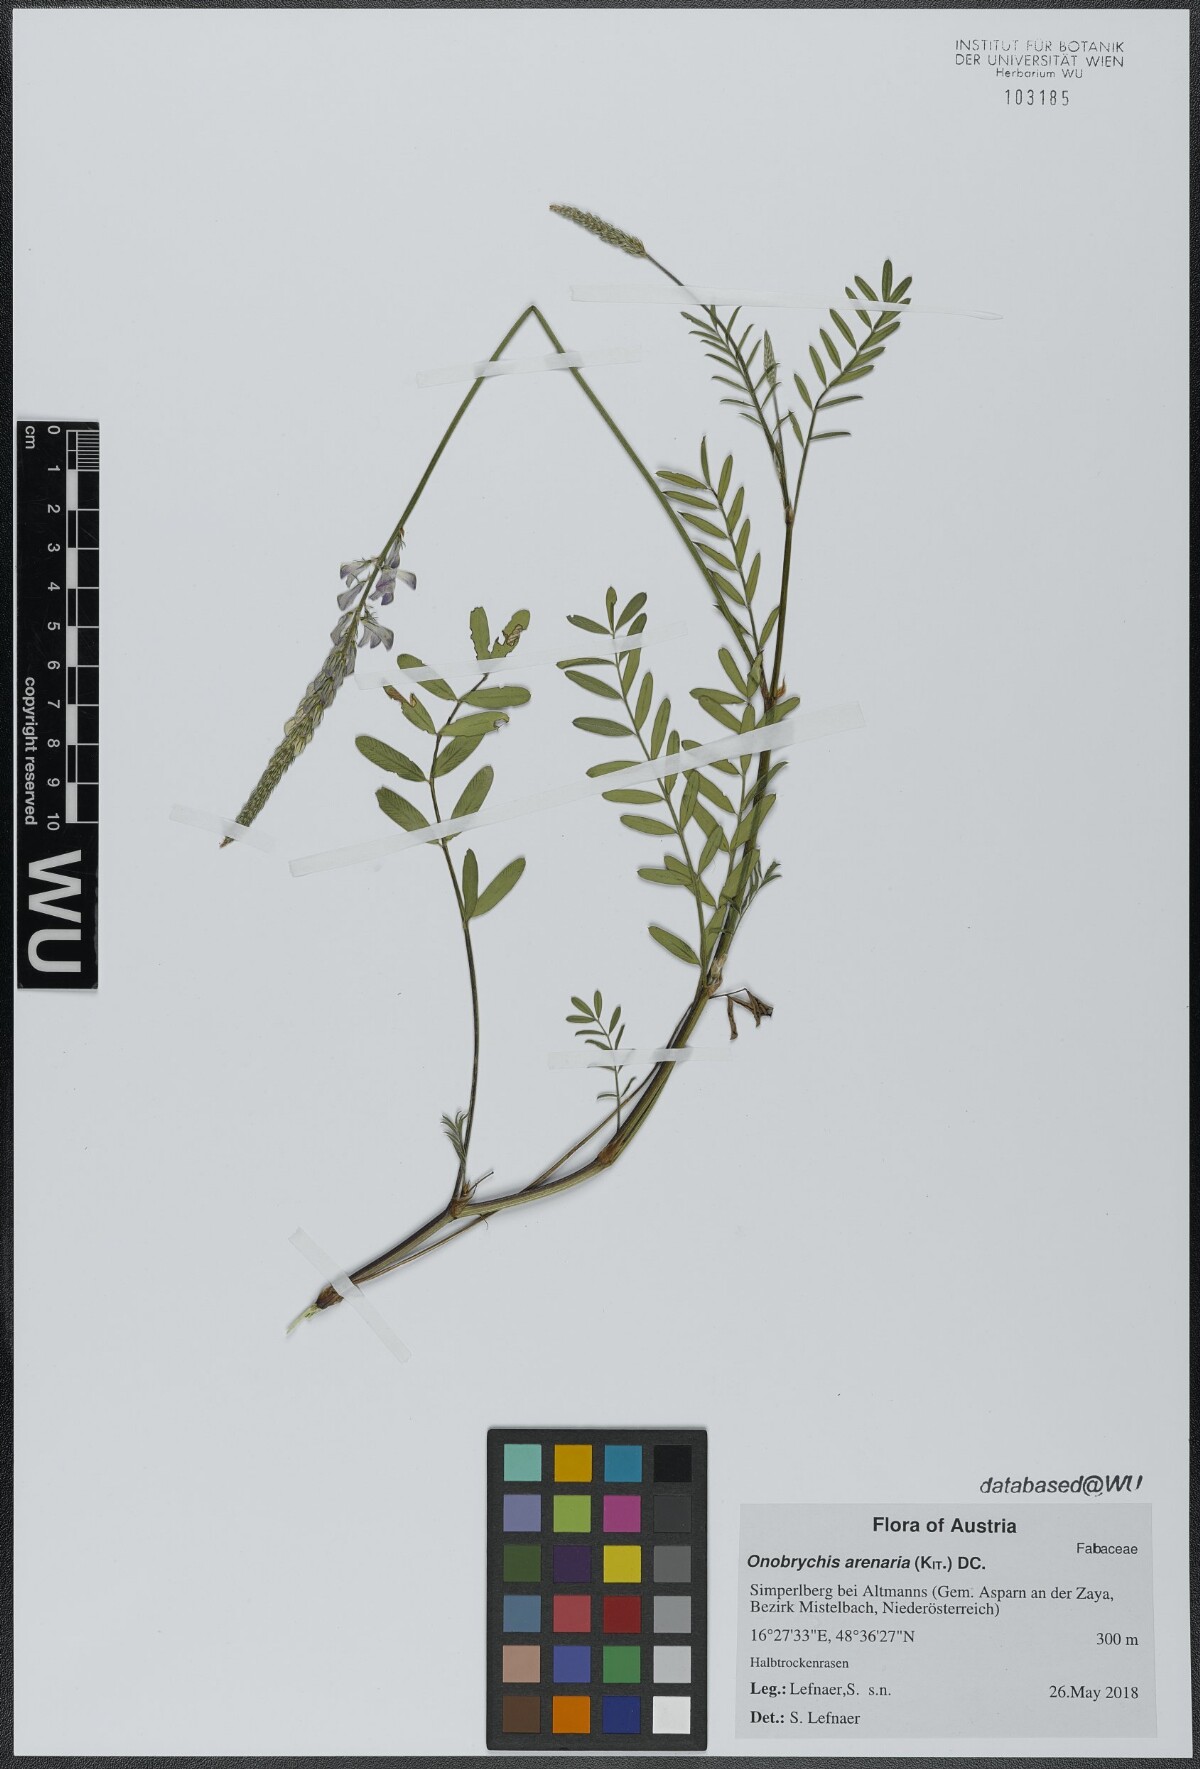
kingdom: Plantae
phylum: Tracheophyta
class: Magnoliopsida
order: Fabales
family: Fabaceae
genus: Onobrychis
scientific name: Onobrychis arenaria
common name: Sand esparcet
